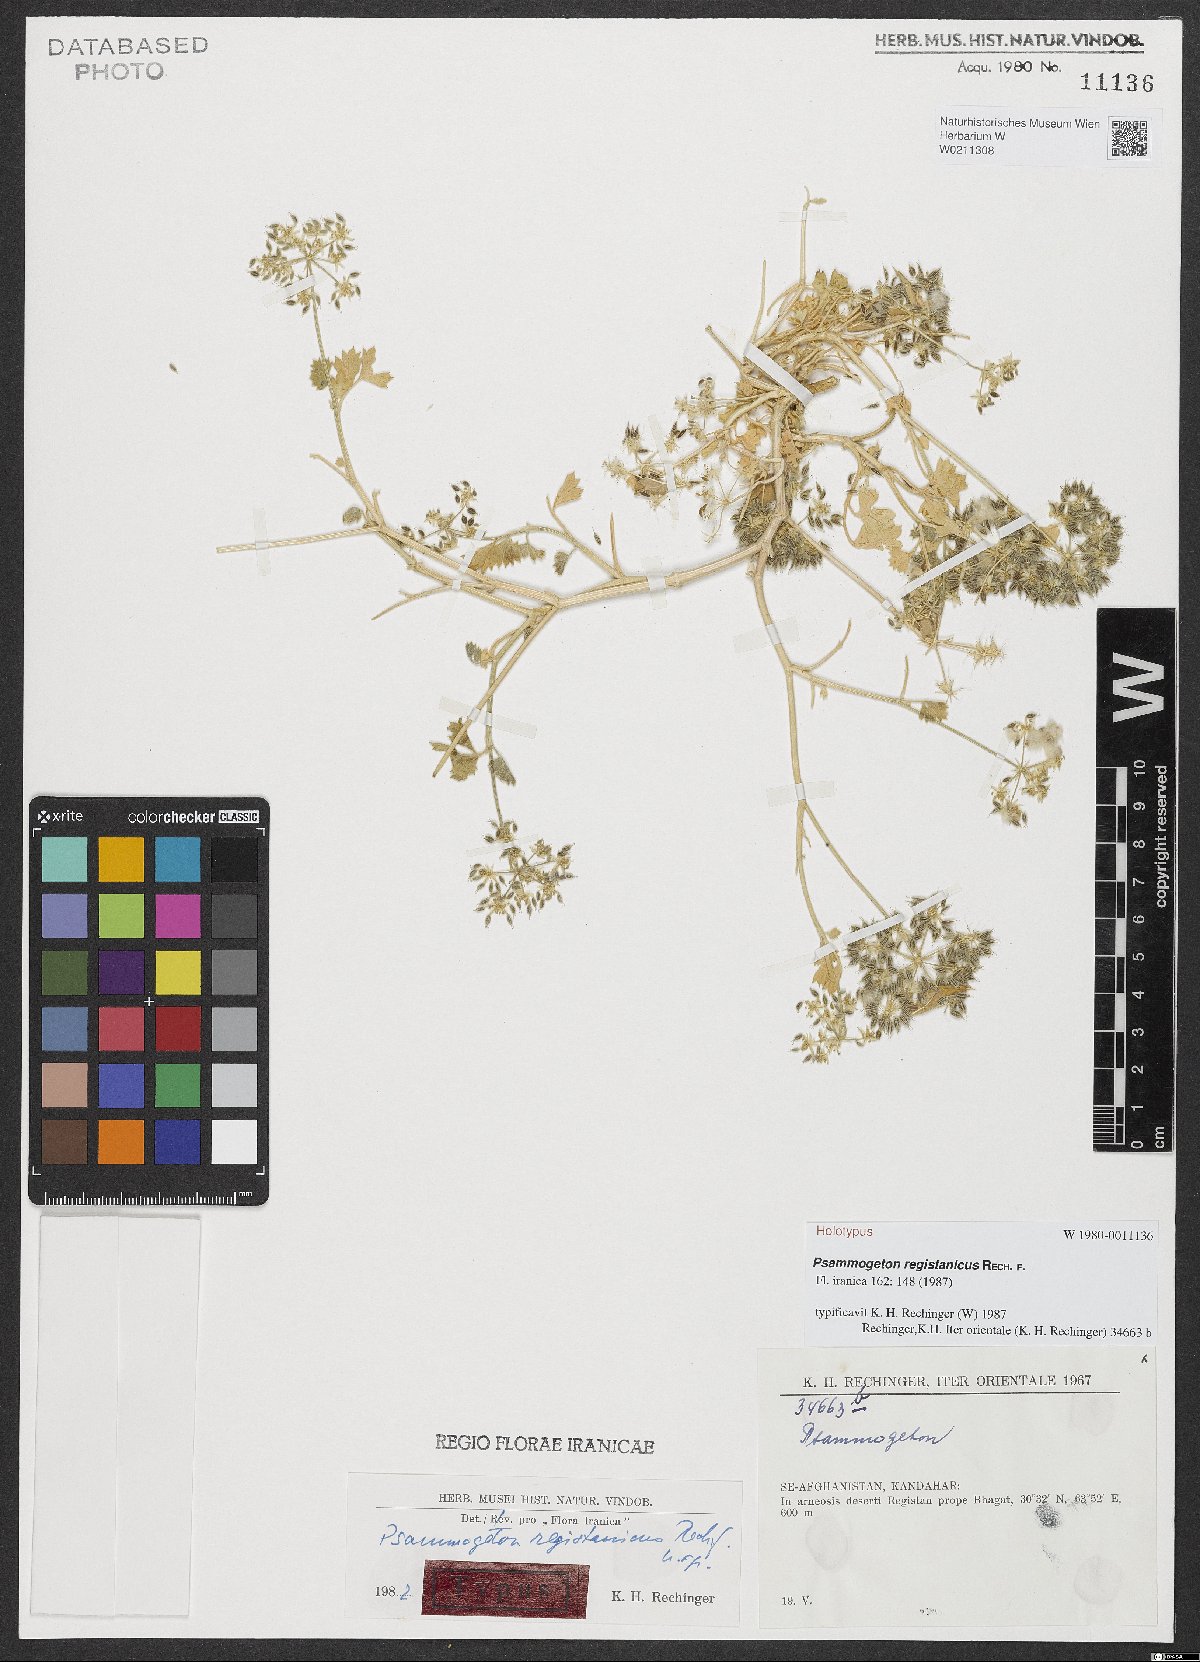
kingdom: Plantae
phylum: Tracheophyta
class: Magnoliopsida
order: Apiales
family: Apiaceae
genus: Psammogeton
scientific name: Psammogeton registanicus
